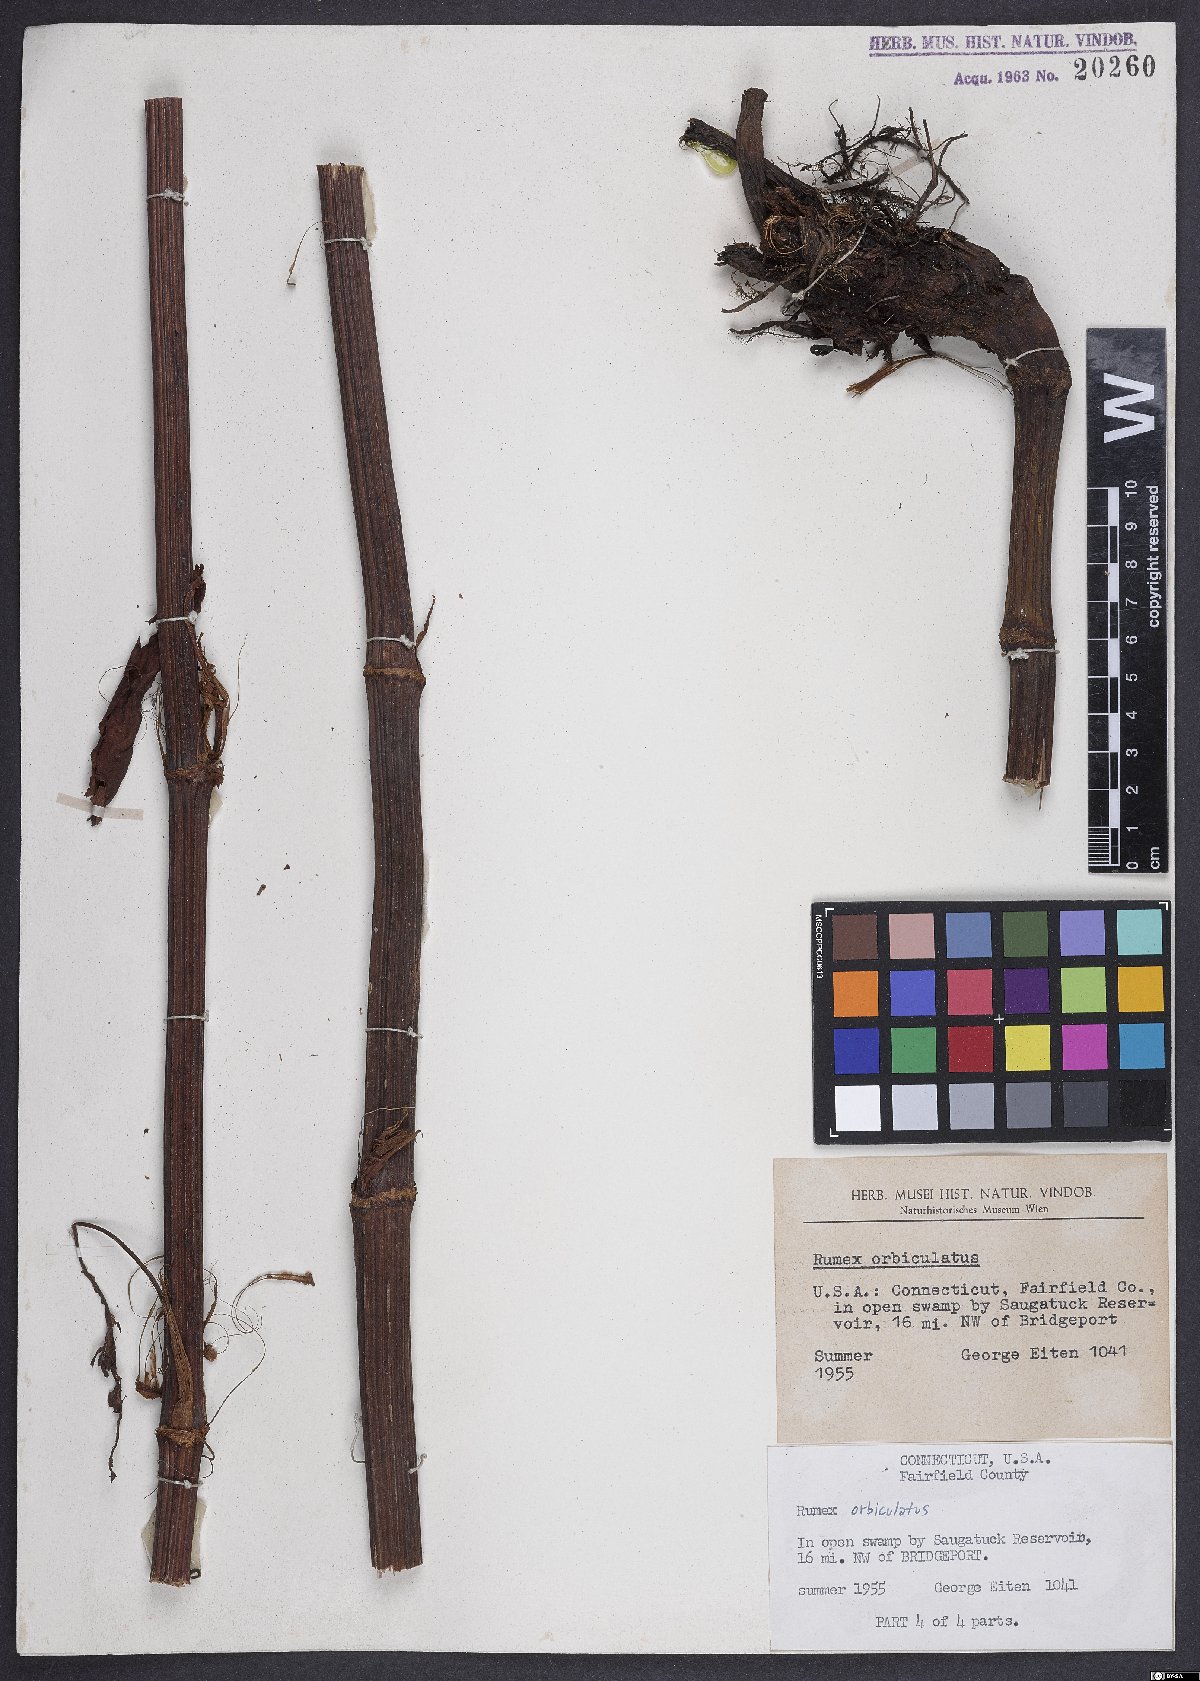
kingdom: Plantae
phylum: Tracheophyta
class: Magnoliopsida
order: Caryophyllales
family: Polygonaceae
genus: Rumex
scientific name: Rumex orbiculatus
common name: Greater water dock
